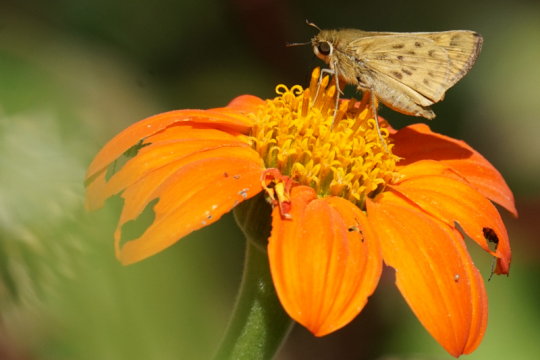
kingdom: Animalia
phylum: Arthropoda
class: Insecta
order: Lepidoptera
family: Hesperiidae
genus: Hylephila
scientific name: Hylephila phyleus
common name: Fiery Skipper
